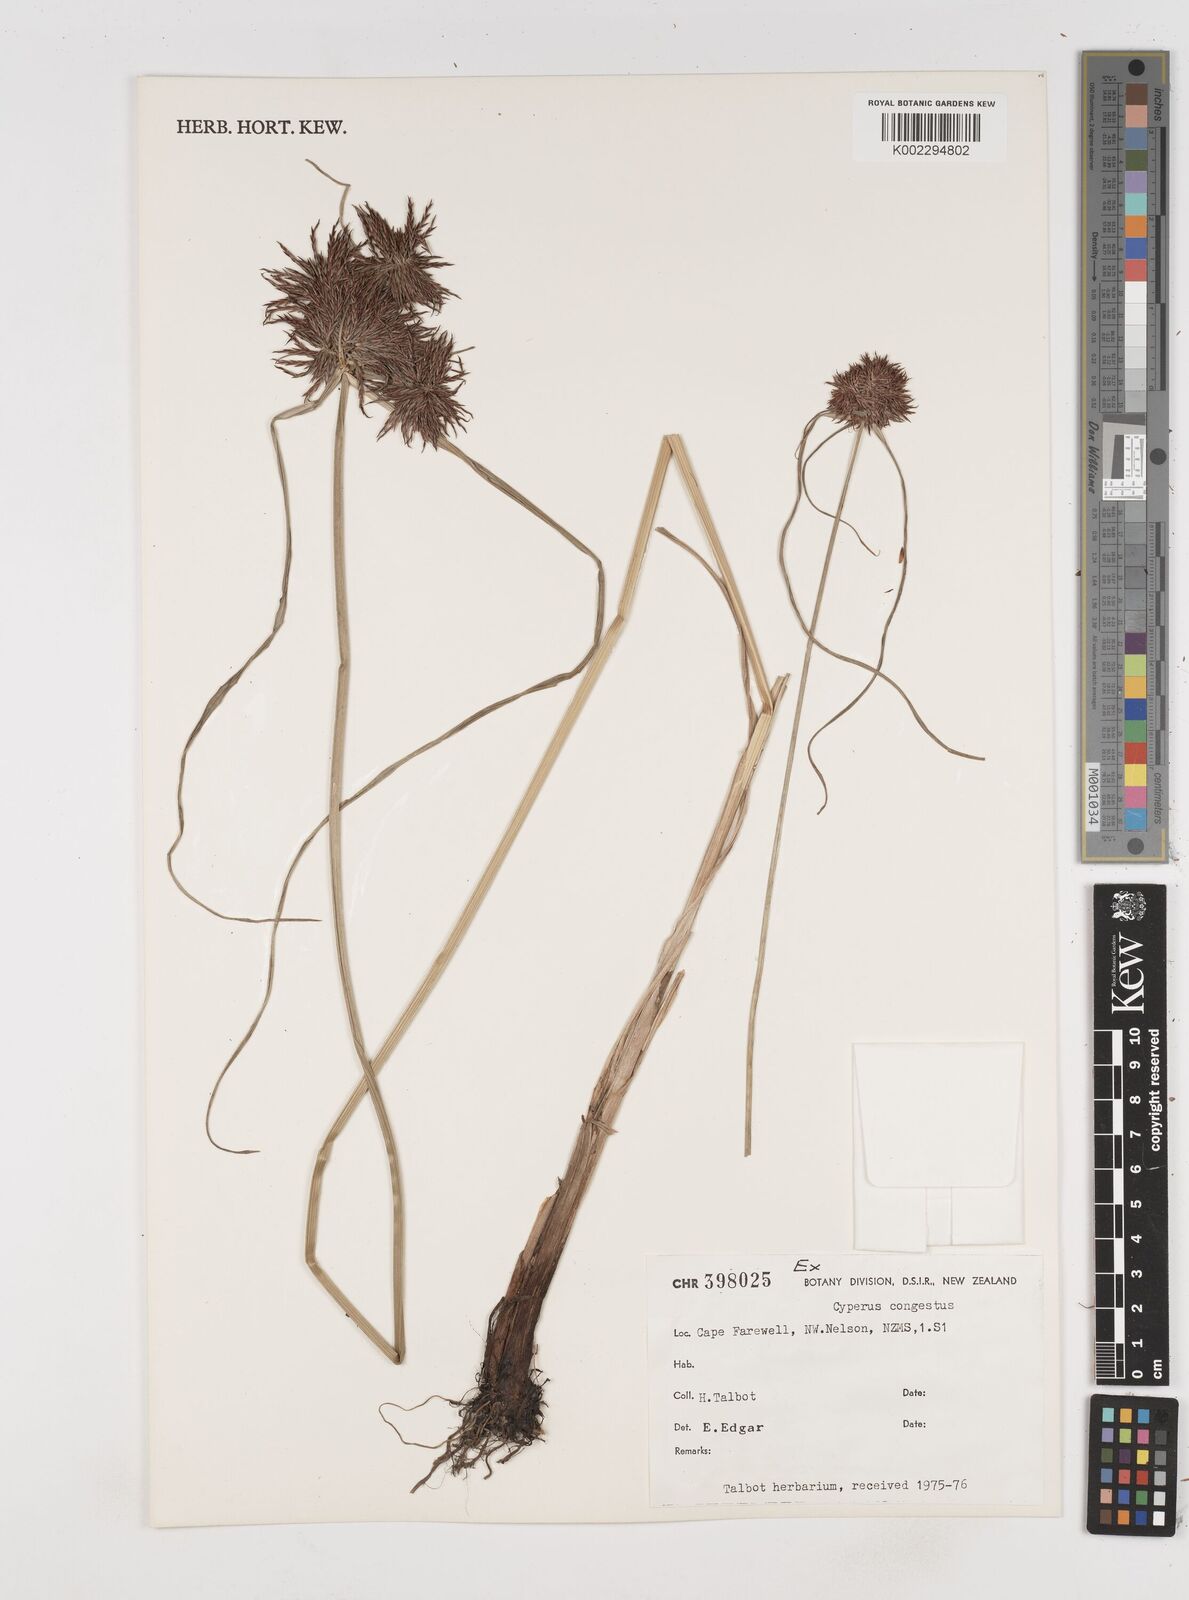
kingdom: Plantae
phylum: Tracheophyta
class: Liliopsida
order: Poales
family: Cyperaceae
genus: Cyperus
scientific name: Cyperus congestus
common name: Dense flat sedge
